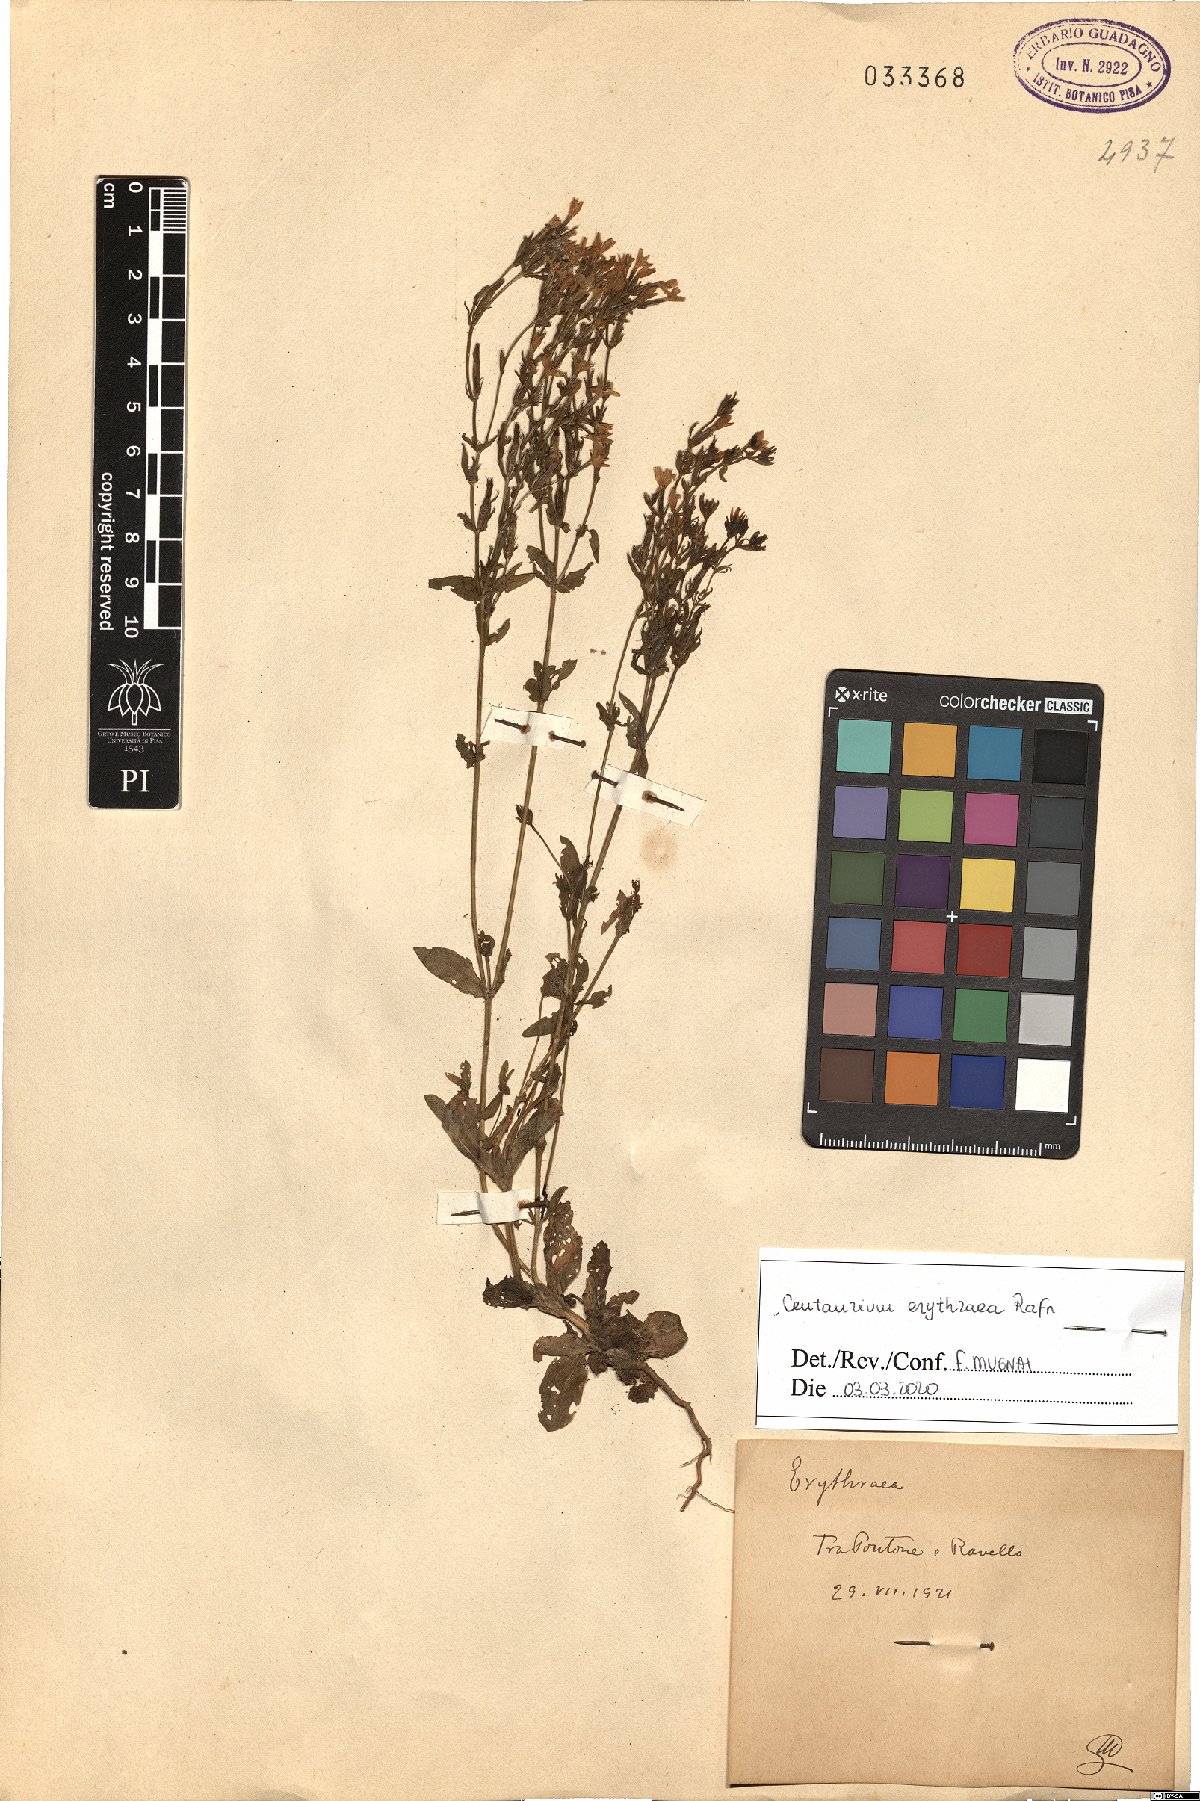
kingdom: Plantae
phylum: Tracheophyta
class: Magnoliopsida
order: Gentianales
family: Gentianaceae
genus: Centaurium
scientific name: Centaurium erythraea
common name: Common centaury
